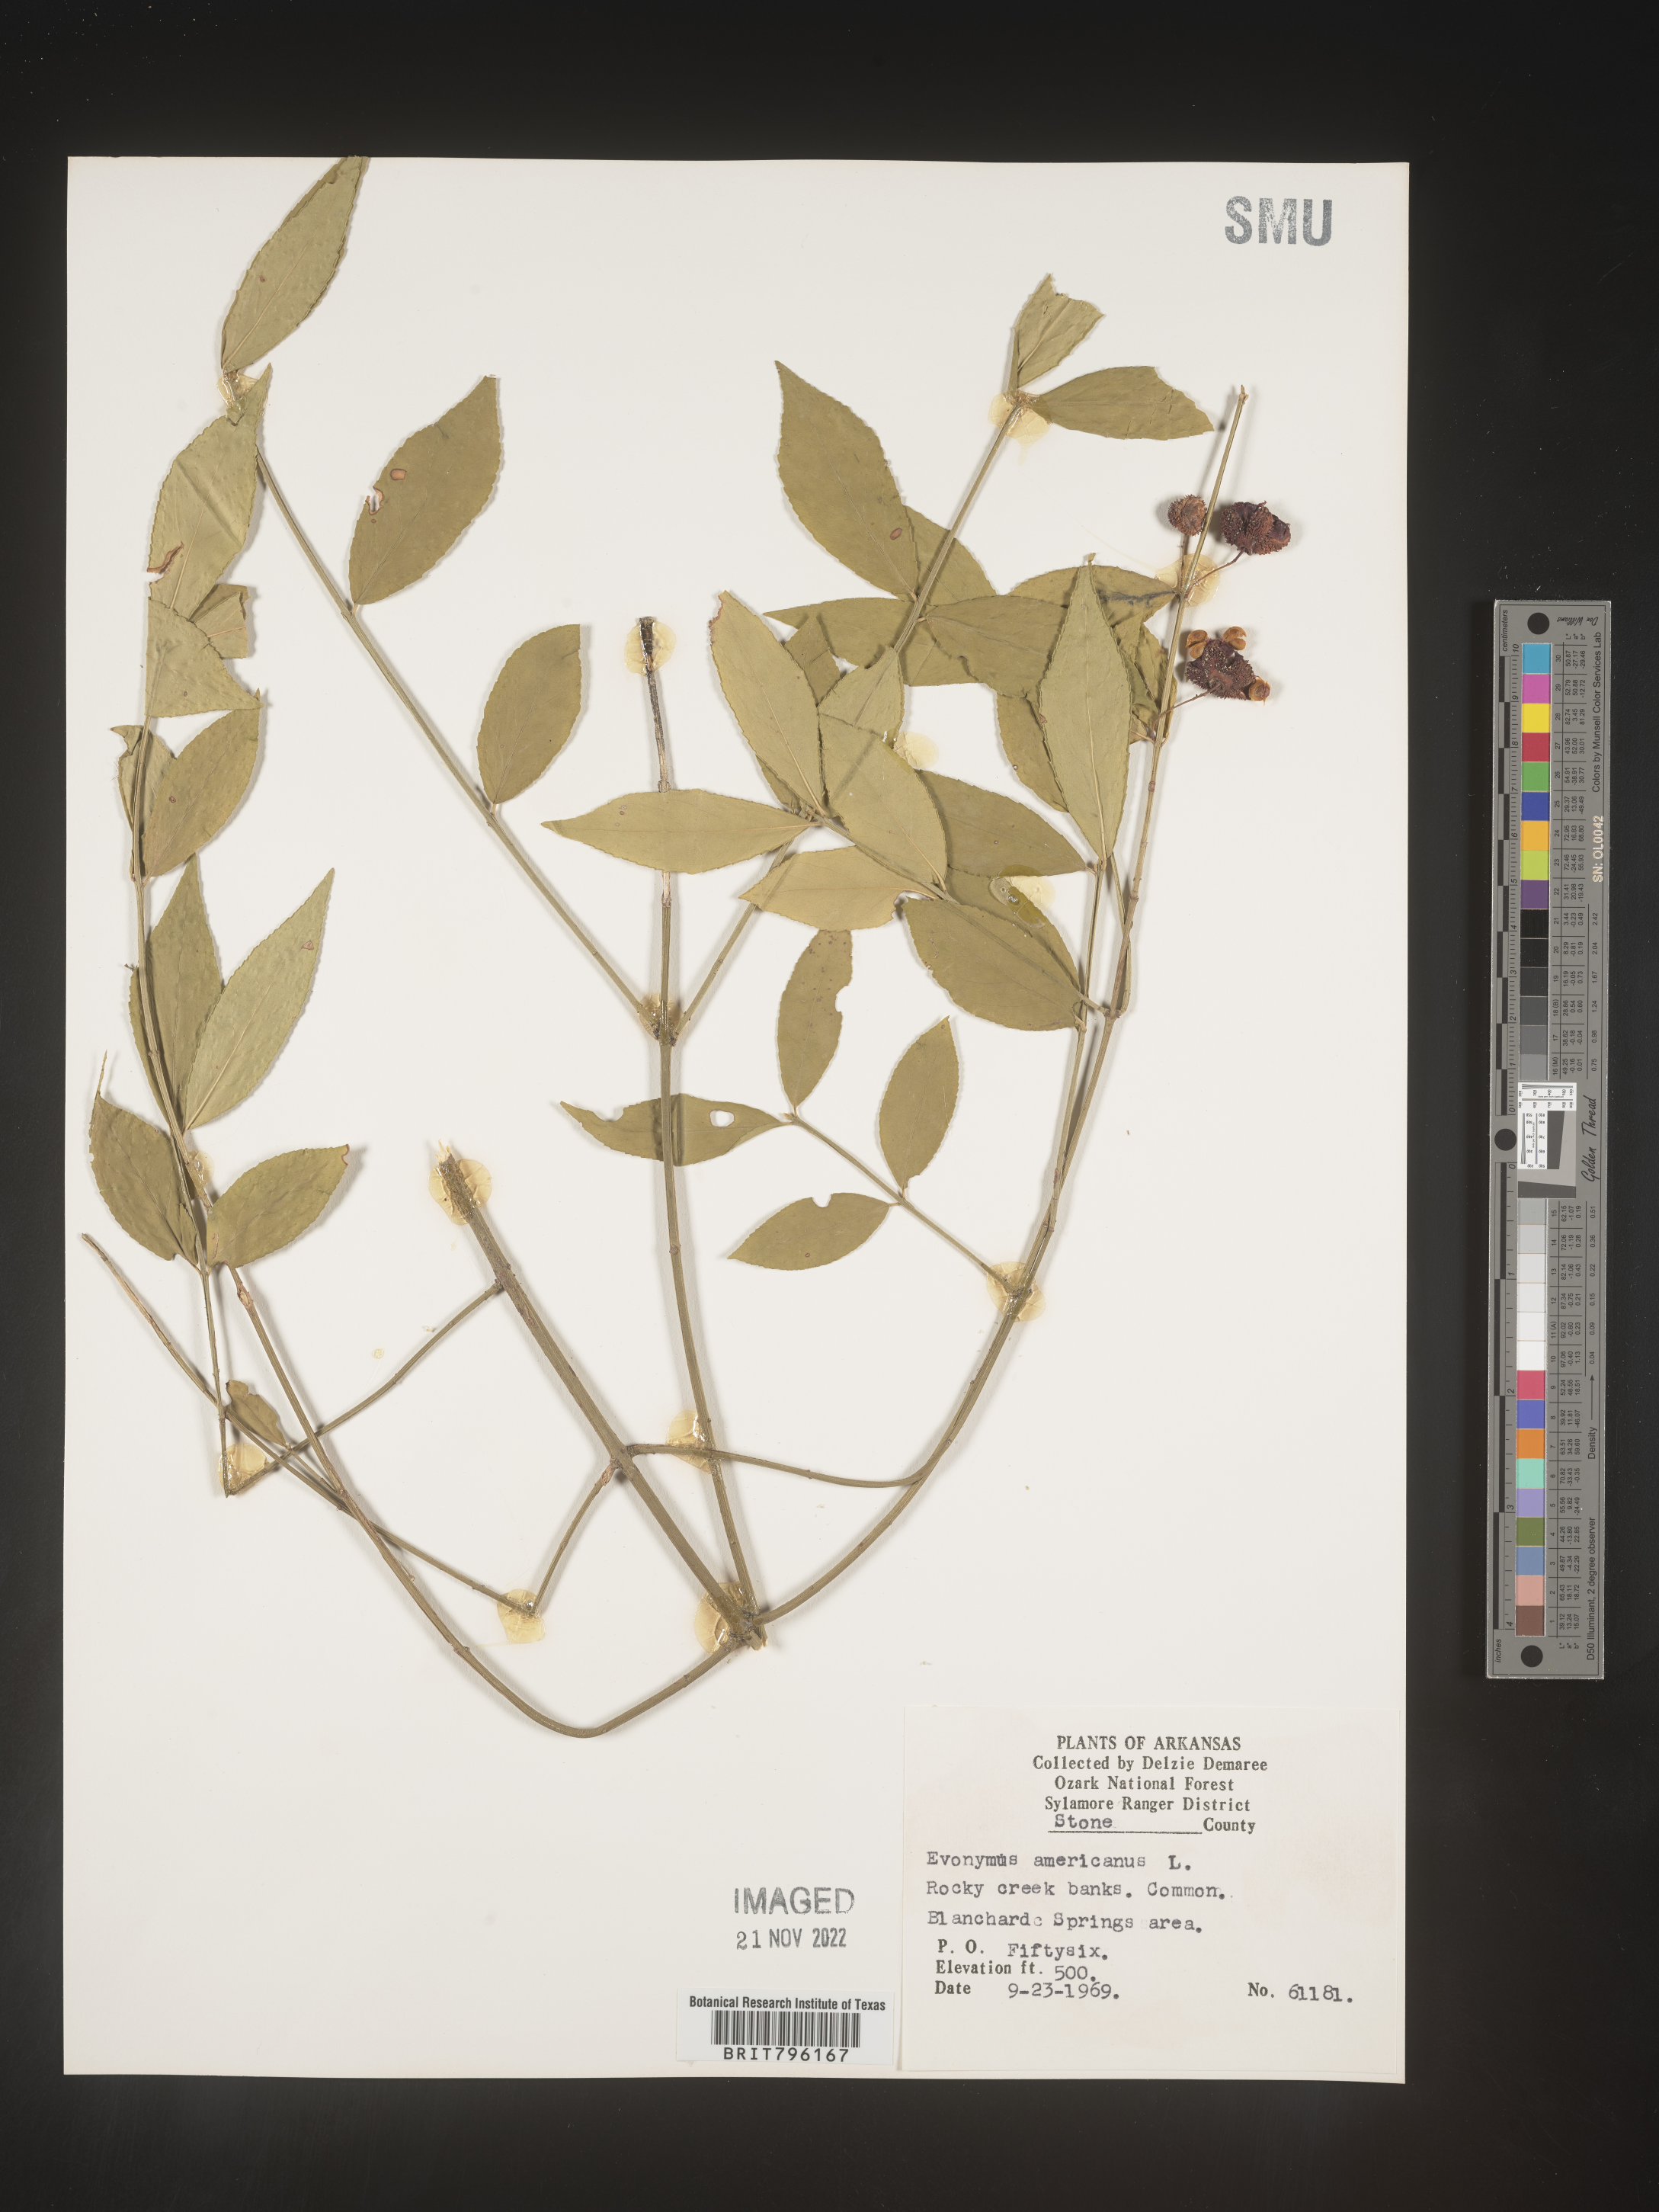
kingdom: Plantae
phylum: Tracheophyta
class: Magnoliopsida
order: Celastrales
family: Celastraceae
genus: Euonymus
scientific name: Euonymus americanus
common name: Bursting-heart
